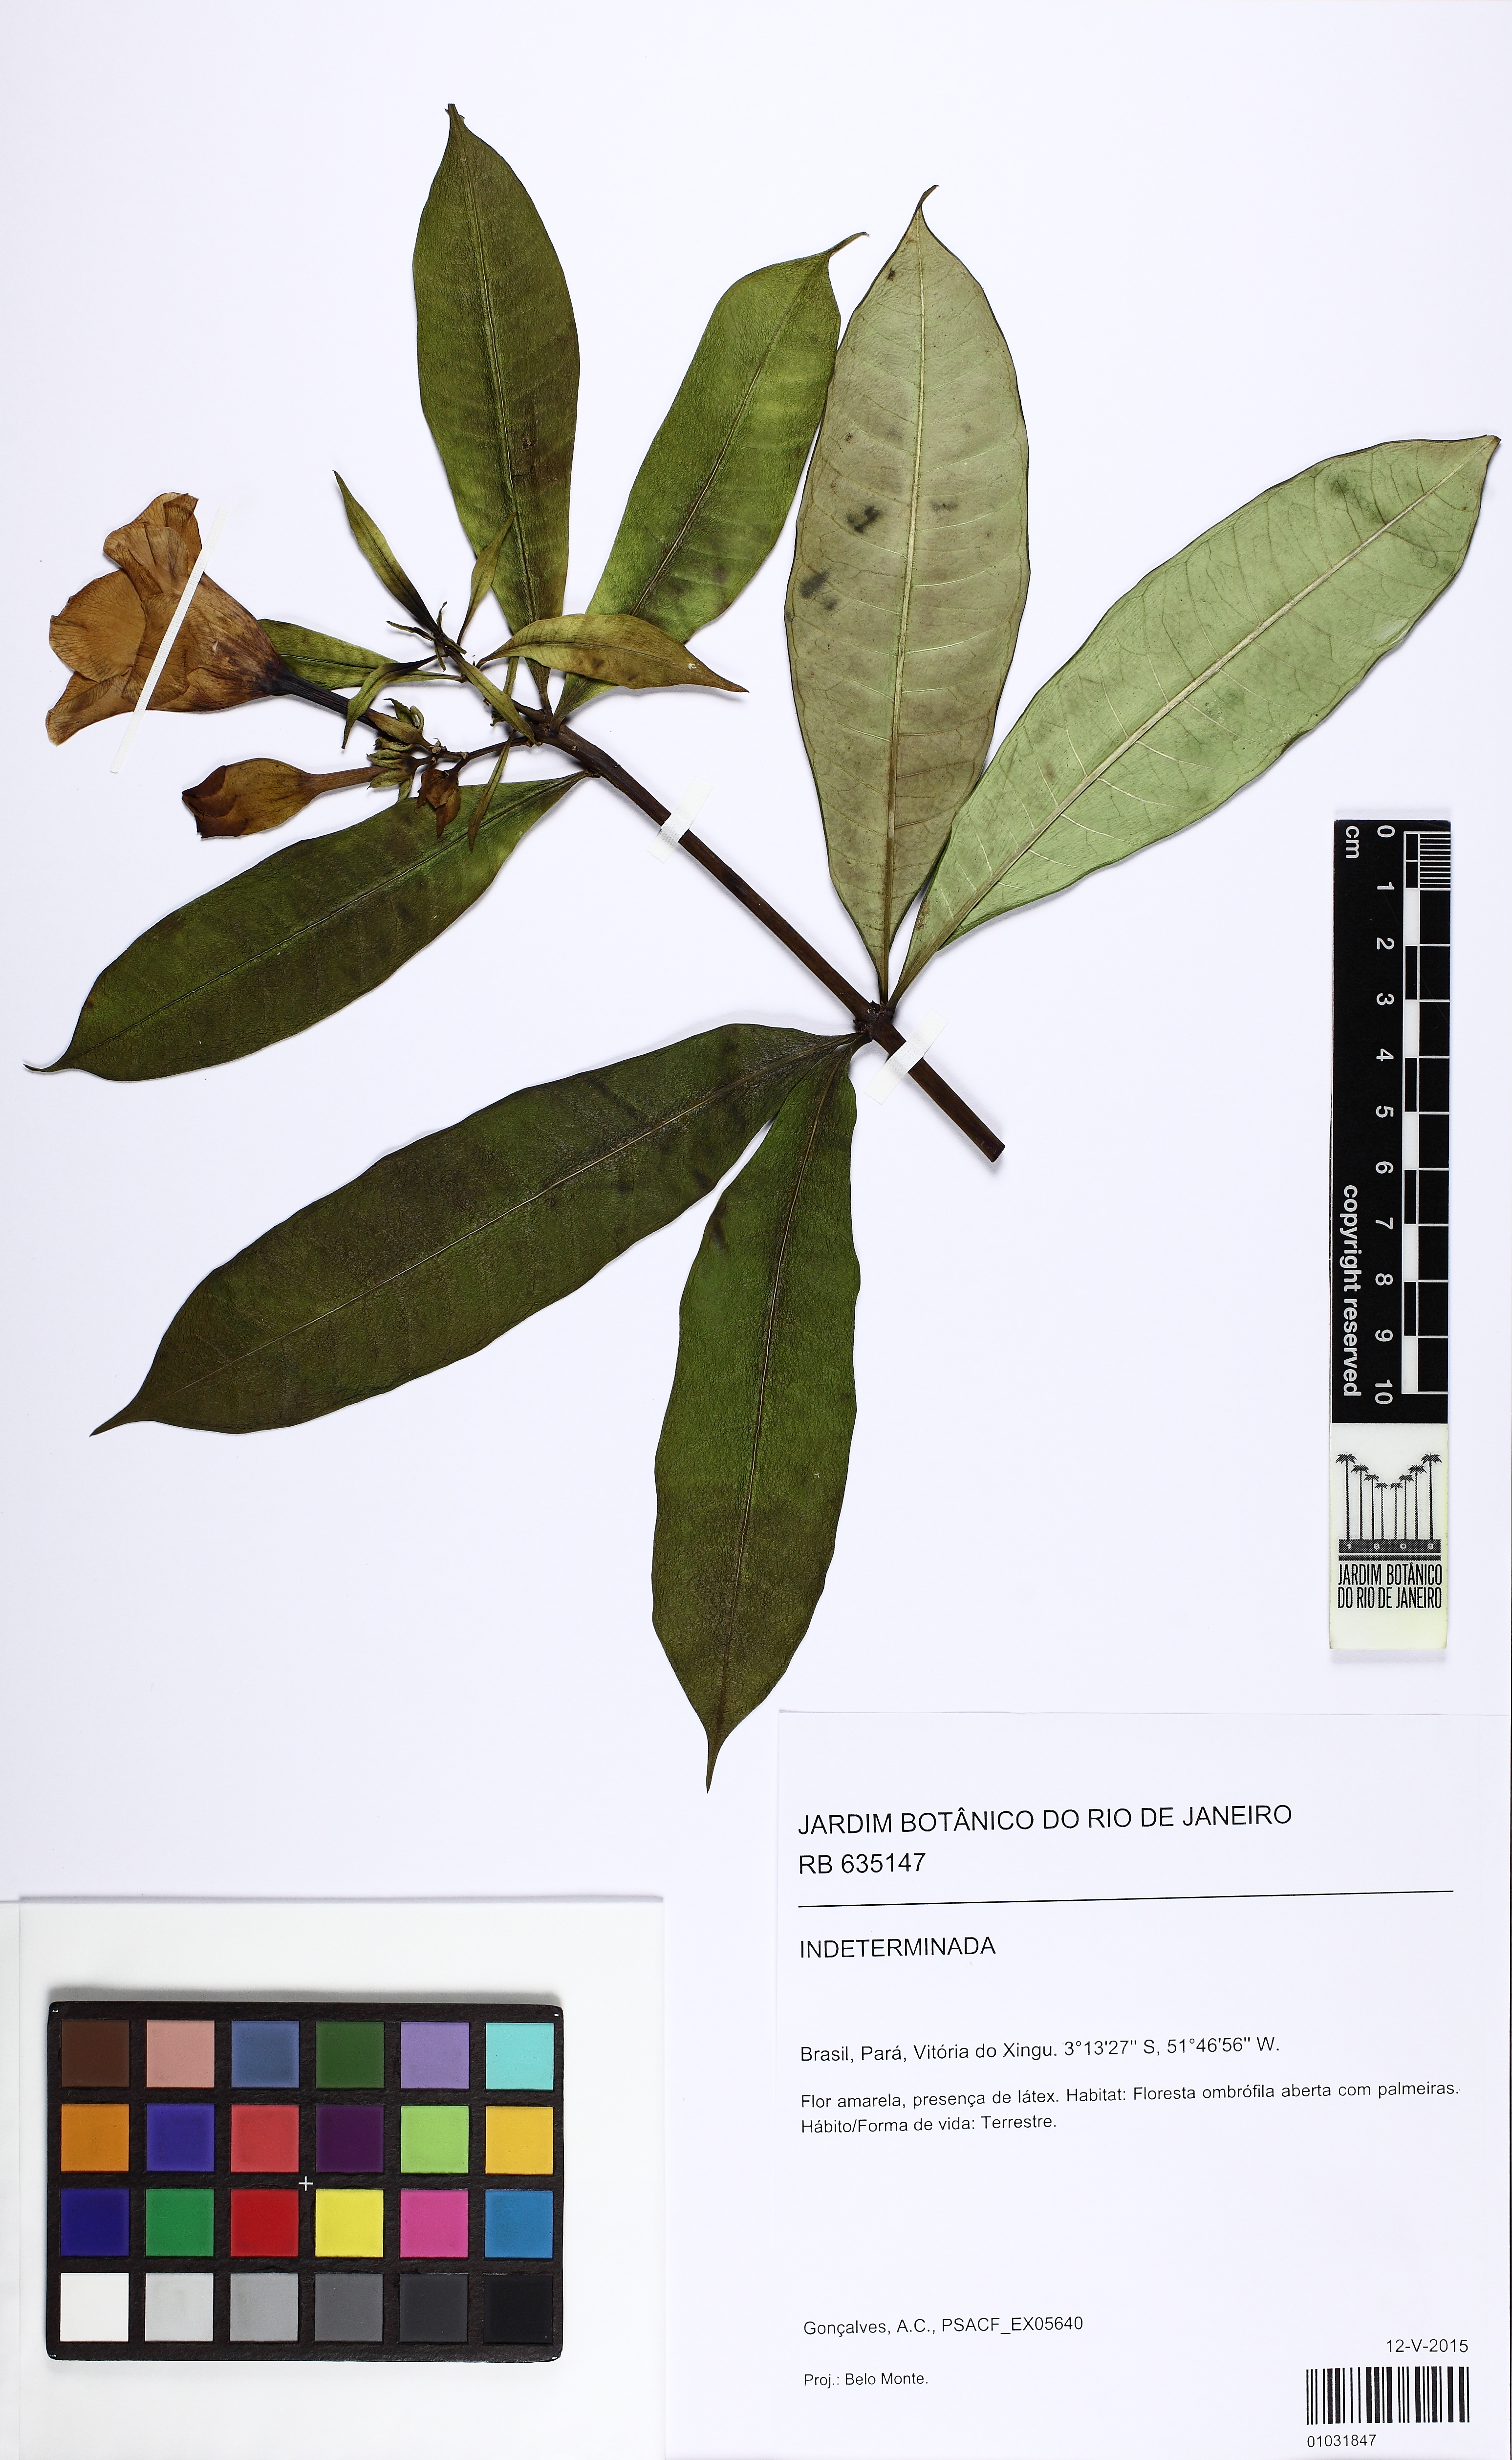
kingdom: Plantae
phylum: Tracheophyta
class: Magnoliopsida
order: Gentianales
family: Apocynaceae
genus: Allamanda
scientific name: Allamanda
